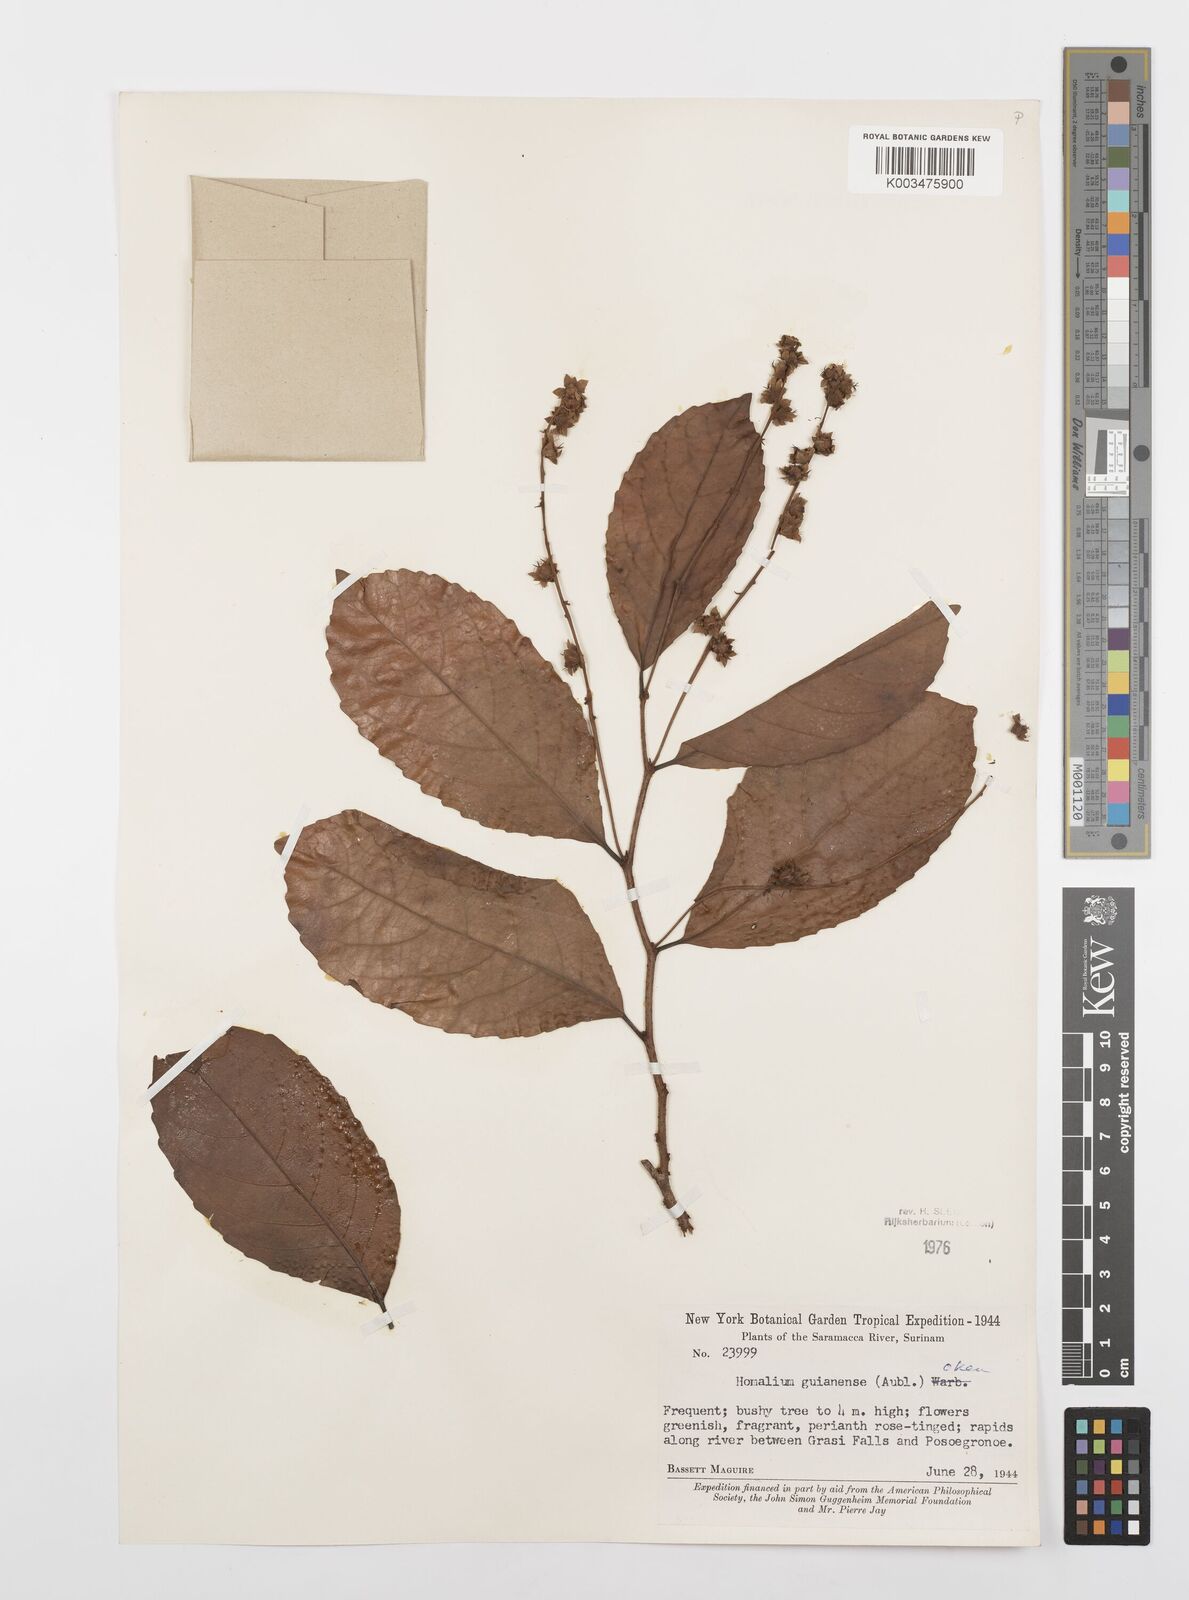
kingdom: Plantae
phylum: Tracheophyta
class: Magnoliopsida
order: Malpighiales
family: Salicaceae
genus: Homalium
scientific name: Homalium guianense
